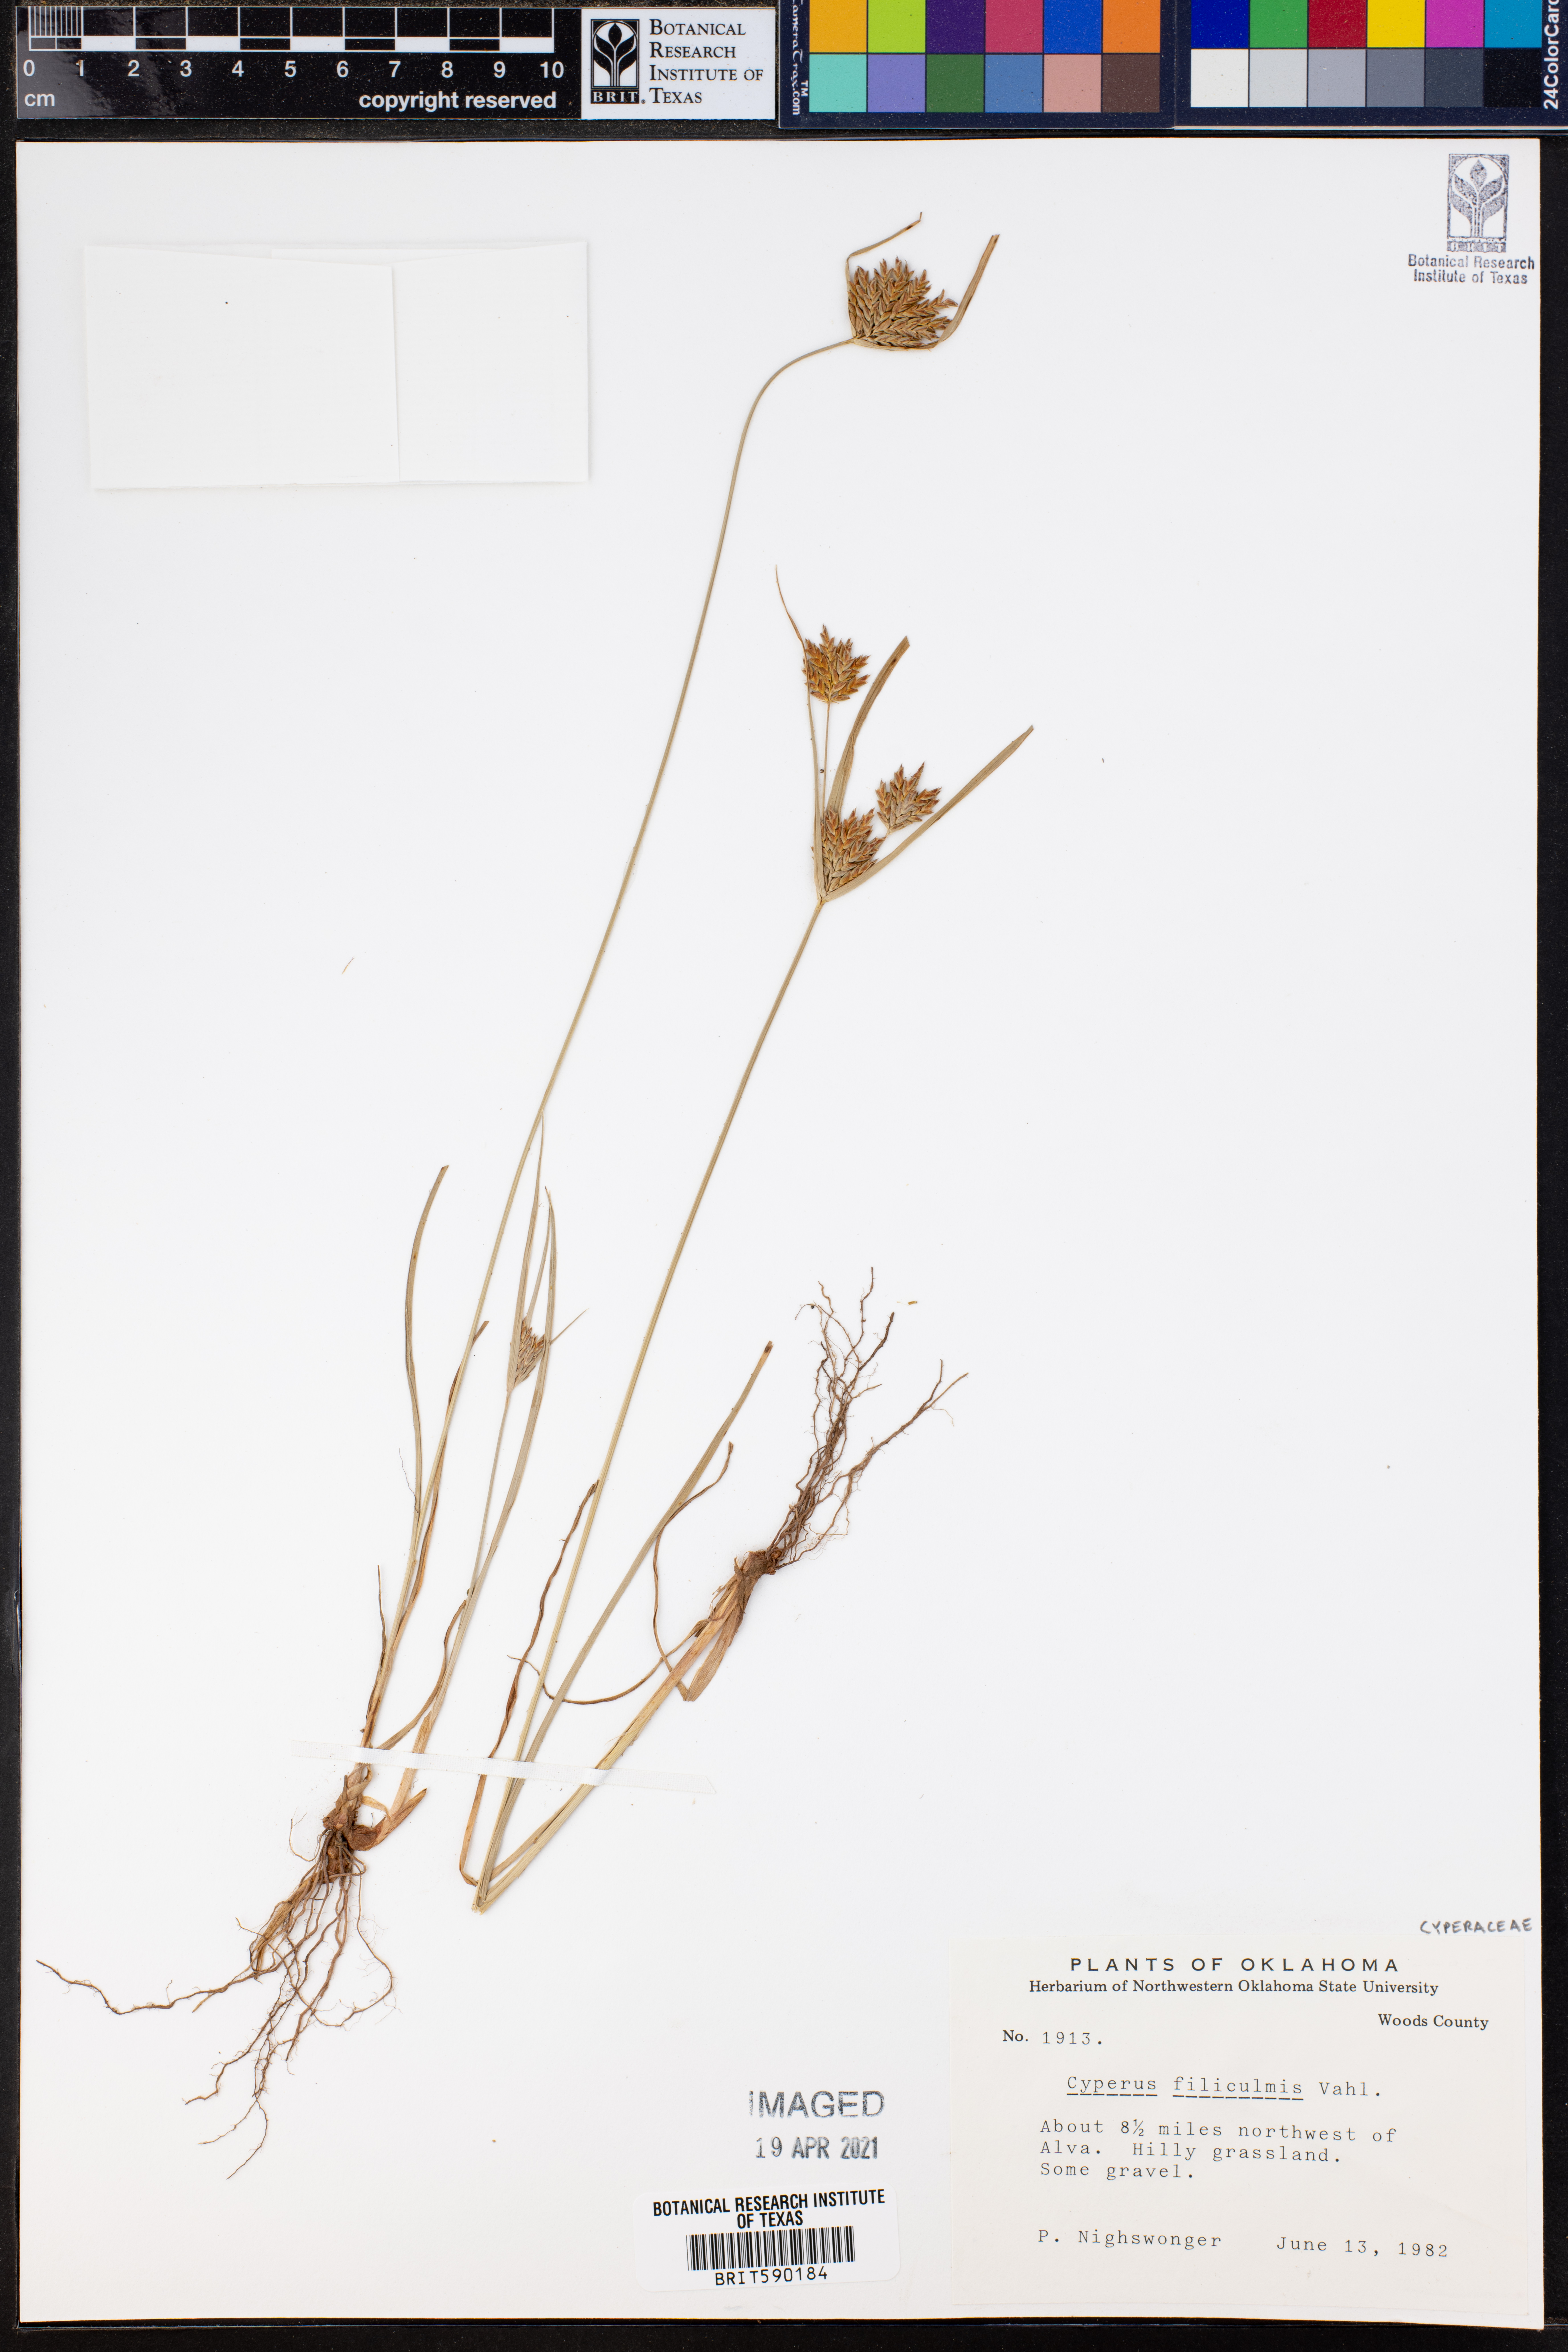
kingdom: Plantae
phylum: Tracheophyta
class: Liliopsida
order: Poales
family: Cyperaceae
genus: Cyperus
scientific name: Cyperus lanceolatus
